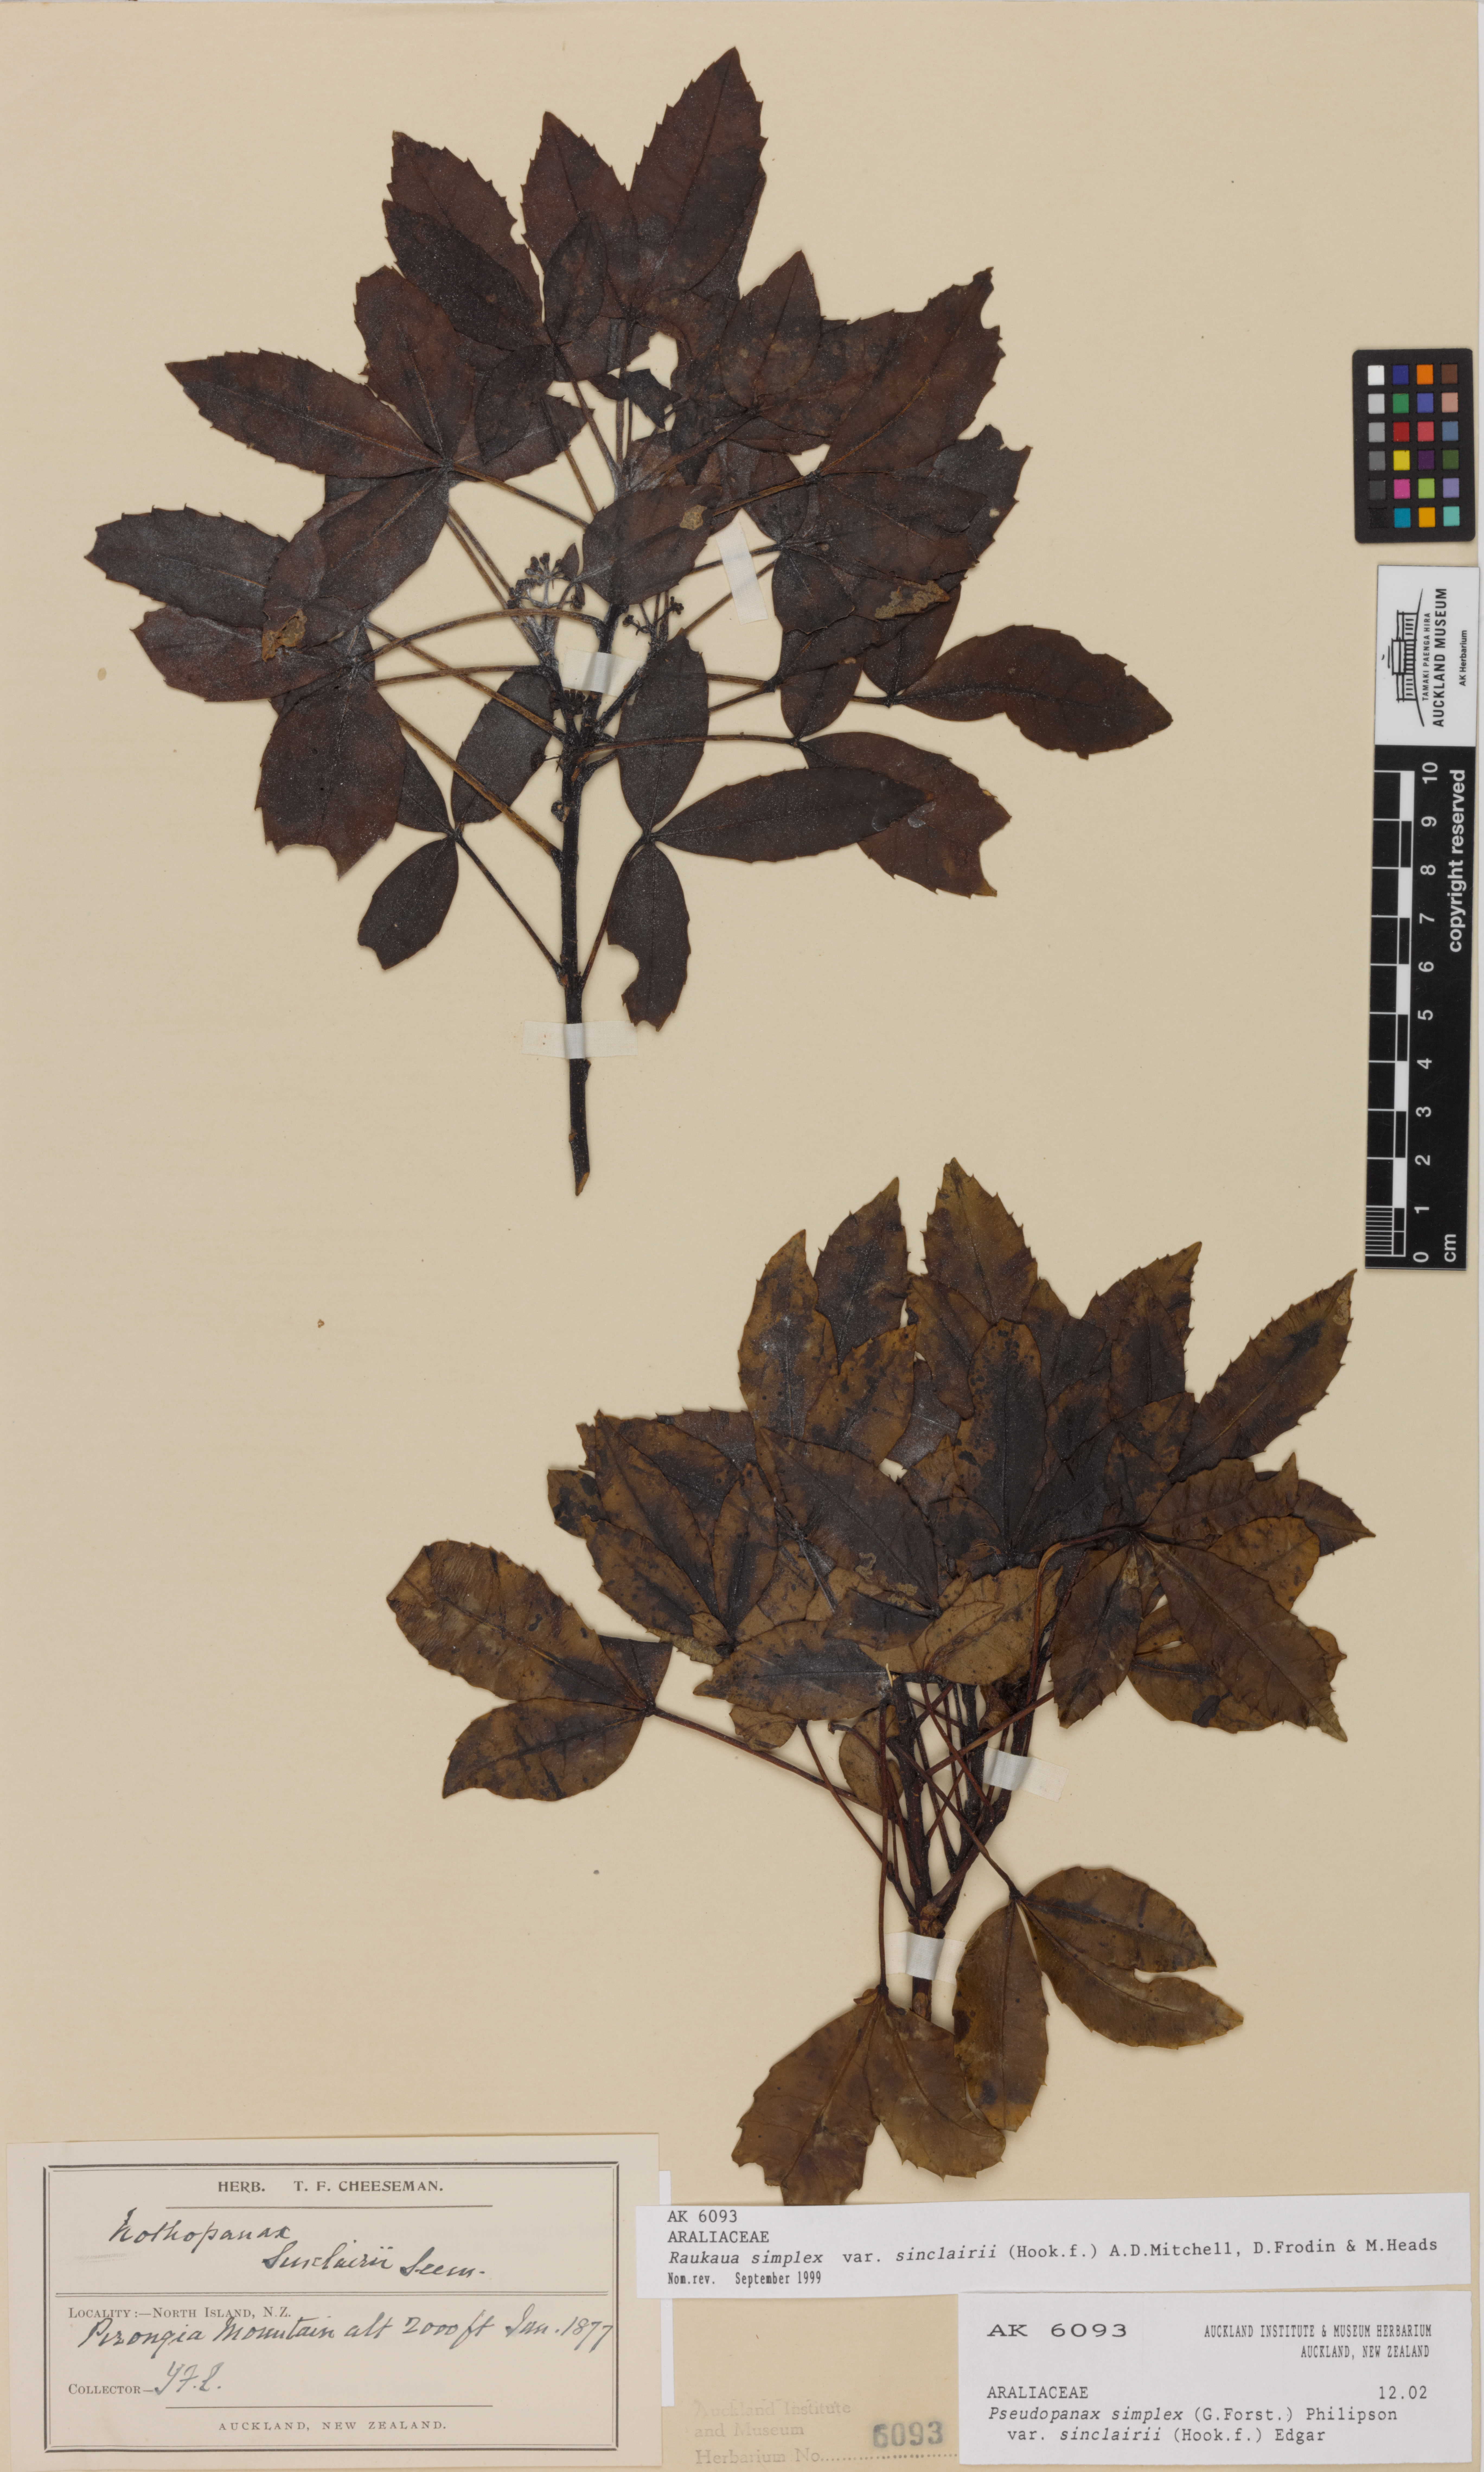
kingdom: Plantae
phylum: Tracheophyta
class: Magnoliopsida
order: Apiales
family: Araliaceae
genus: Raukaua
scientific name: Raukaua simplex
